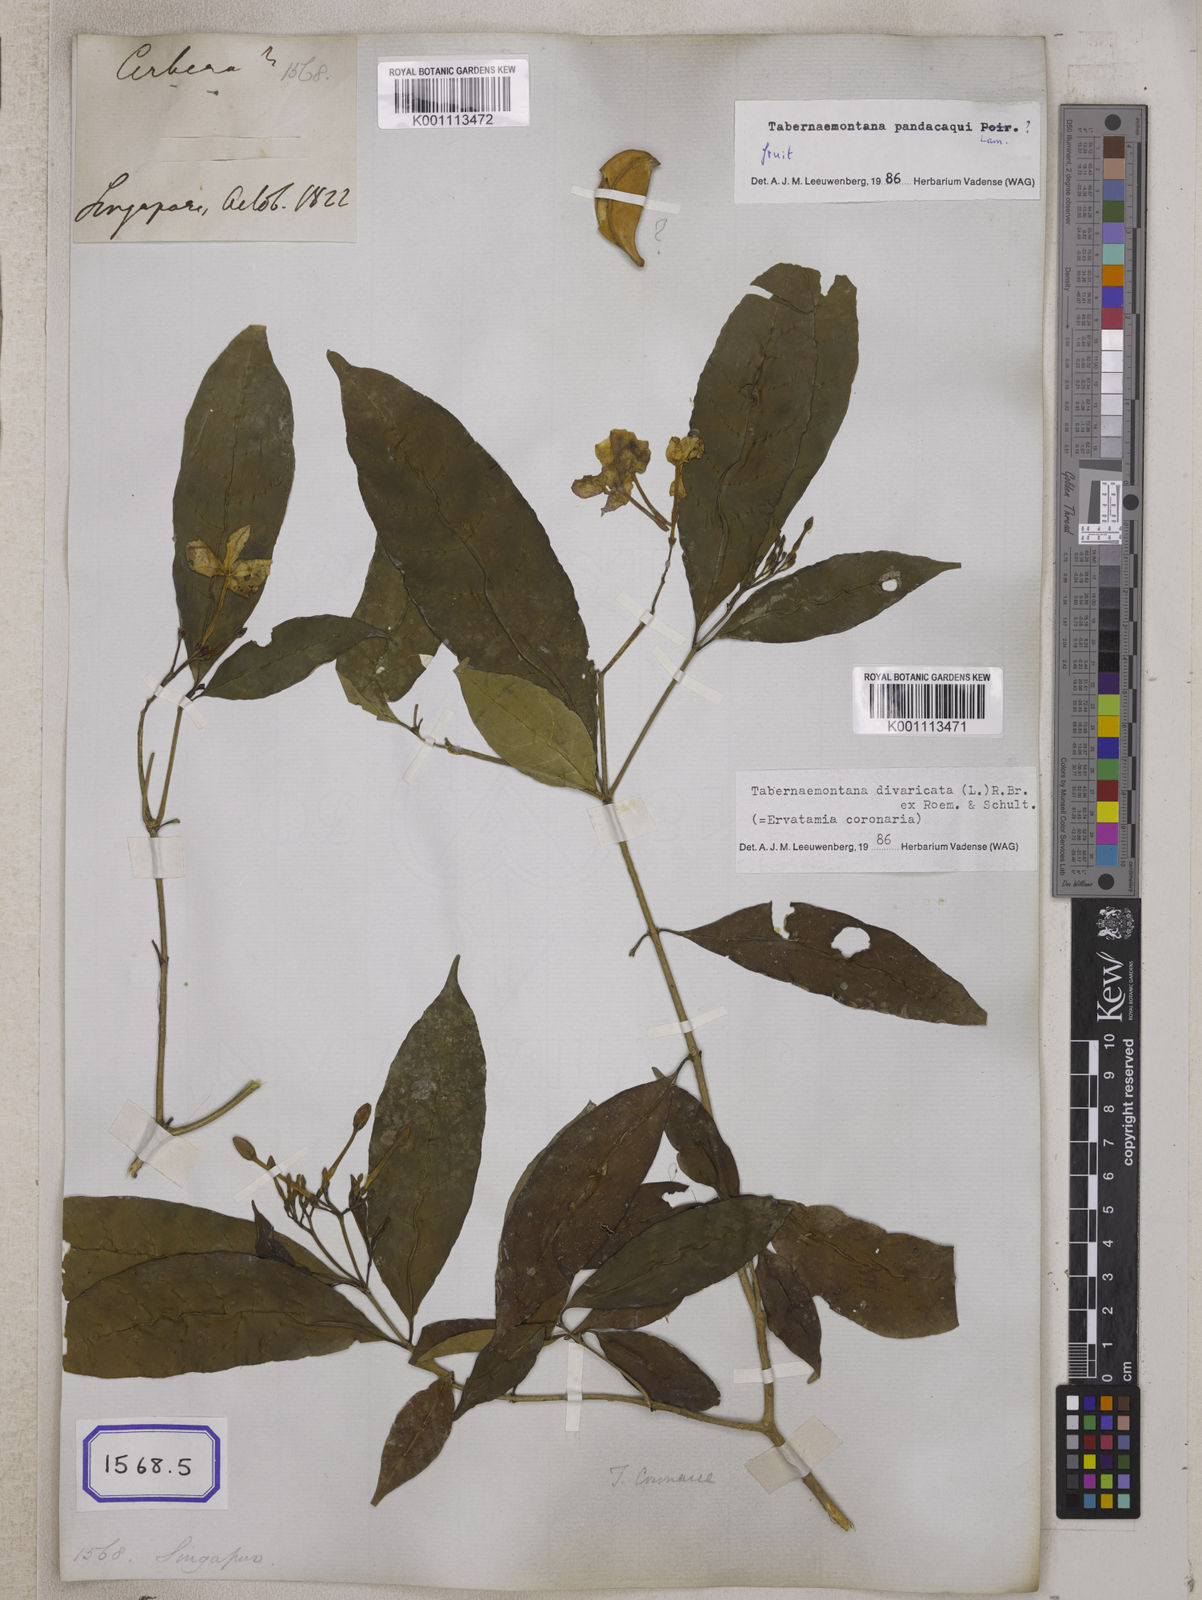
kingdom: Plantae
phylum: Tracheophyta
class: Magnoliopsida
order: Gentianales
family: Apocynaceae
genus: Tabernaemontana
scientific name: Tabernaemontana divaricata
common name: Pinwheelflower
